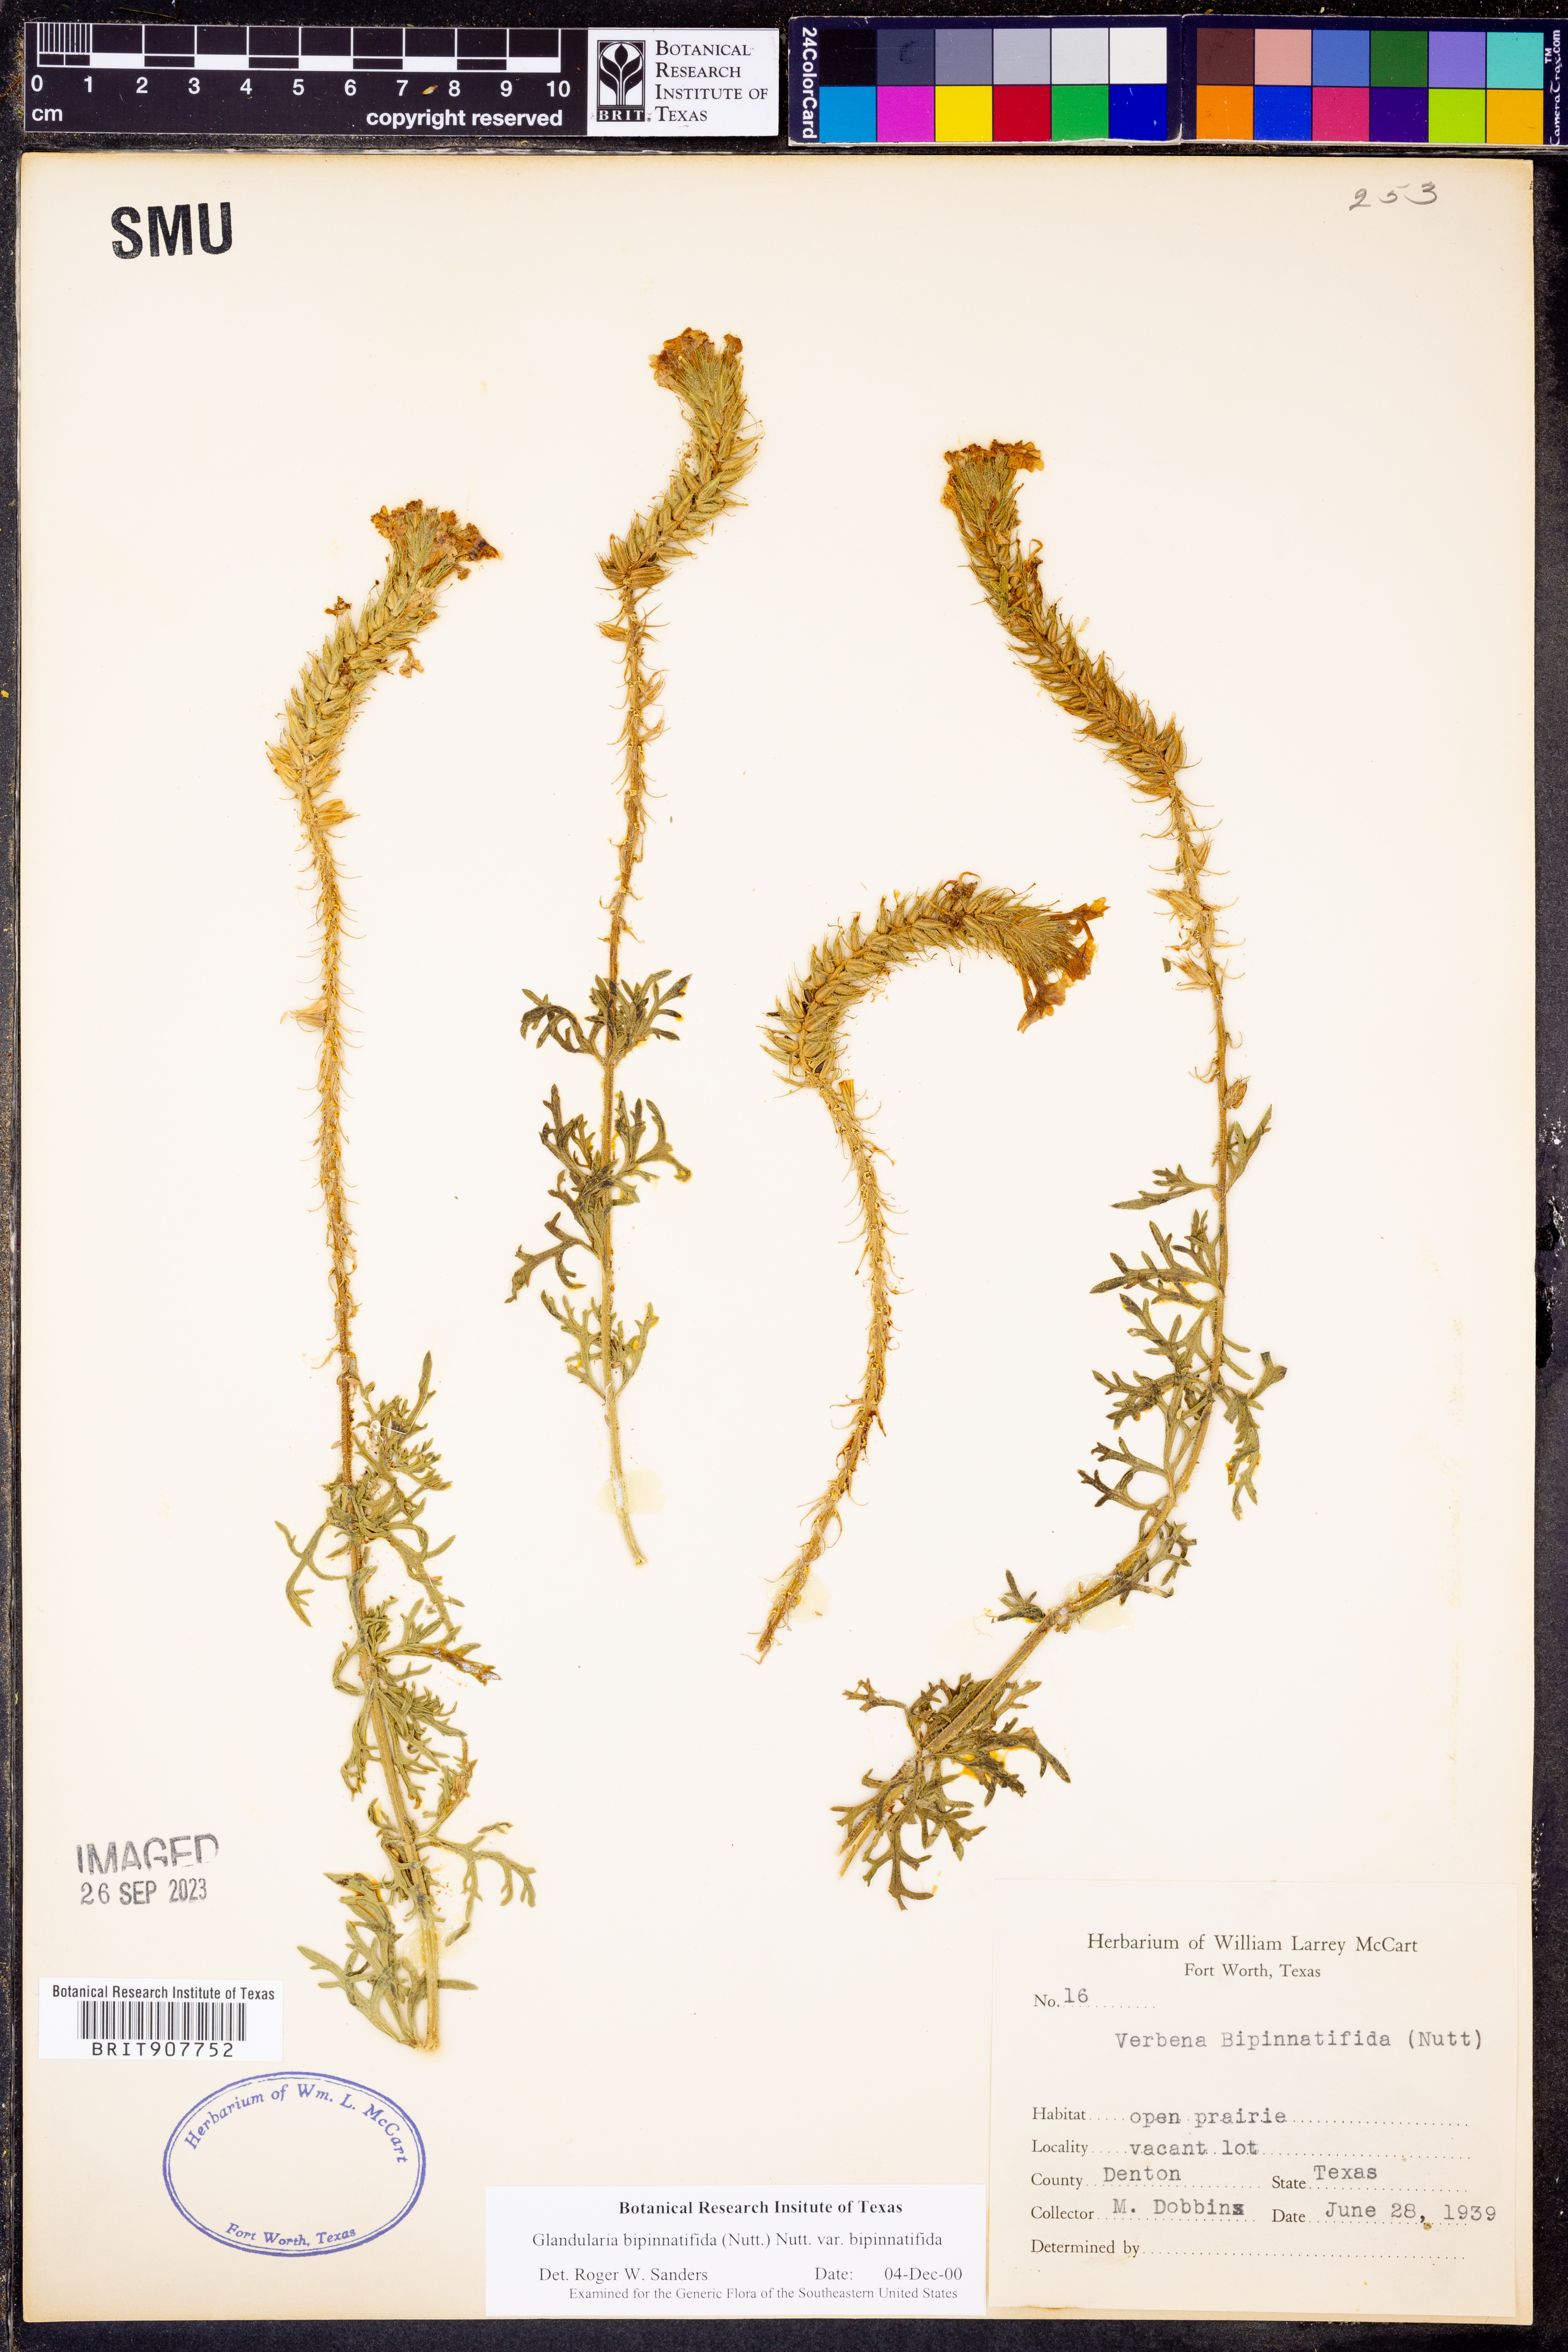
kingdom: Plantae
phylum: Tracheophyta
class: Magnoliopsida
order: Lamiales
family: Verbenaceae
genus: Verbena
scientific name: Verbena bipinnatifida
